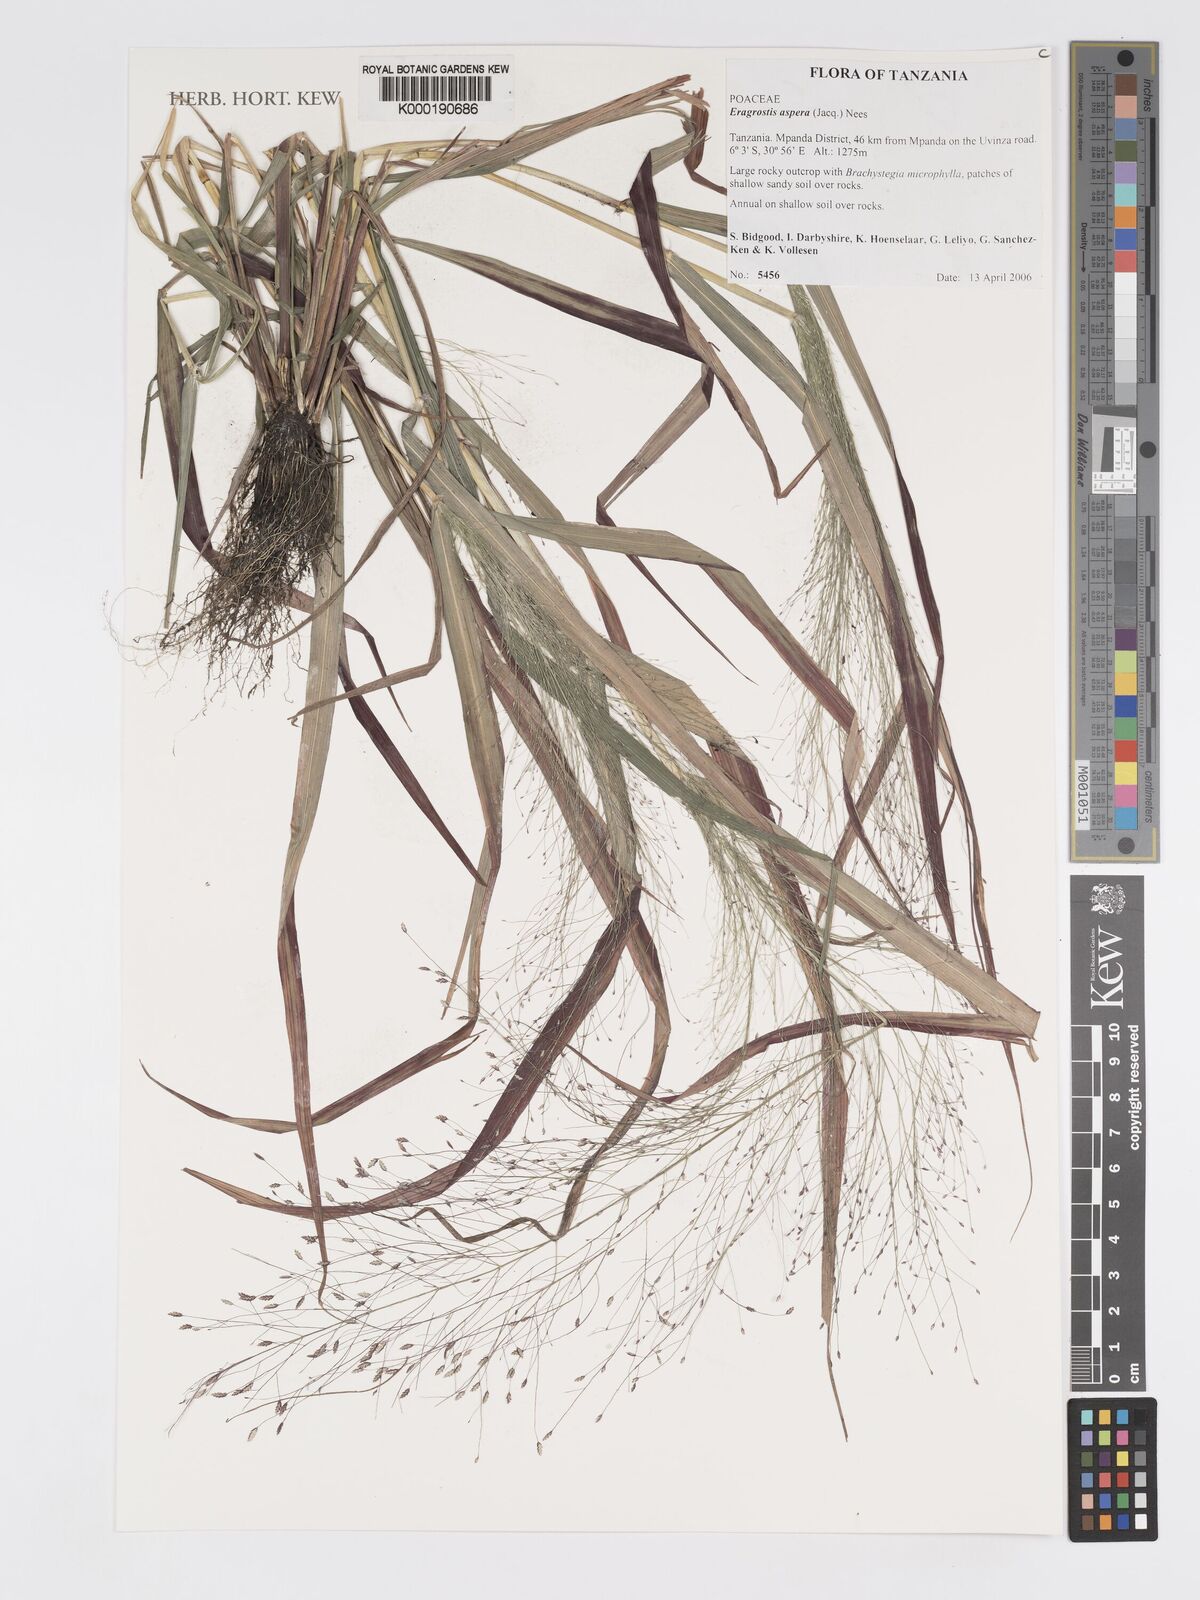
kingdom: Plantae
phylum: Tracheophyta
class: Liliopsida
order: Poales
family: Poaceae
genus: Eragrostis
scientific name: Eragrostis aspera
